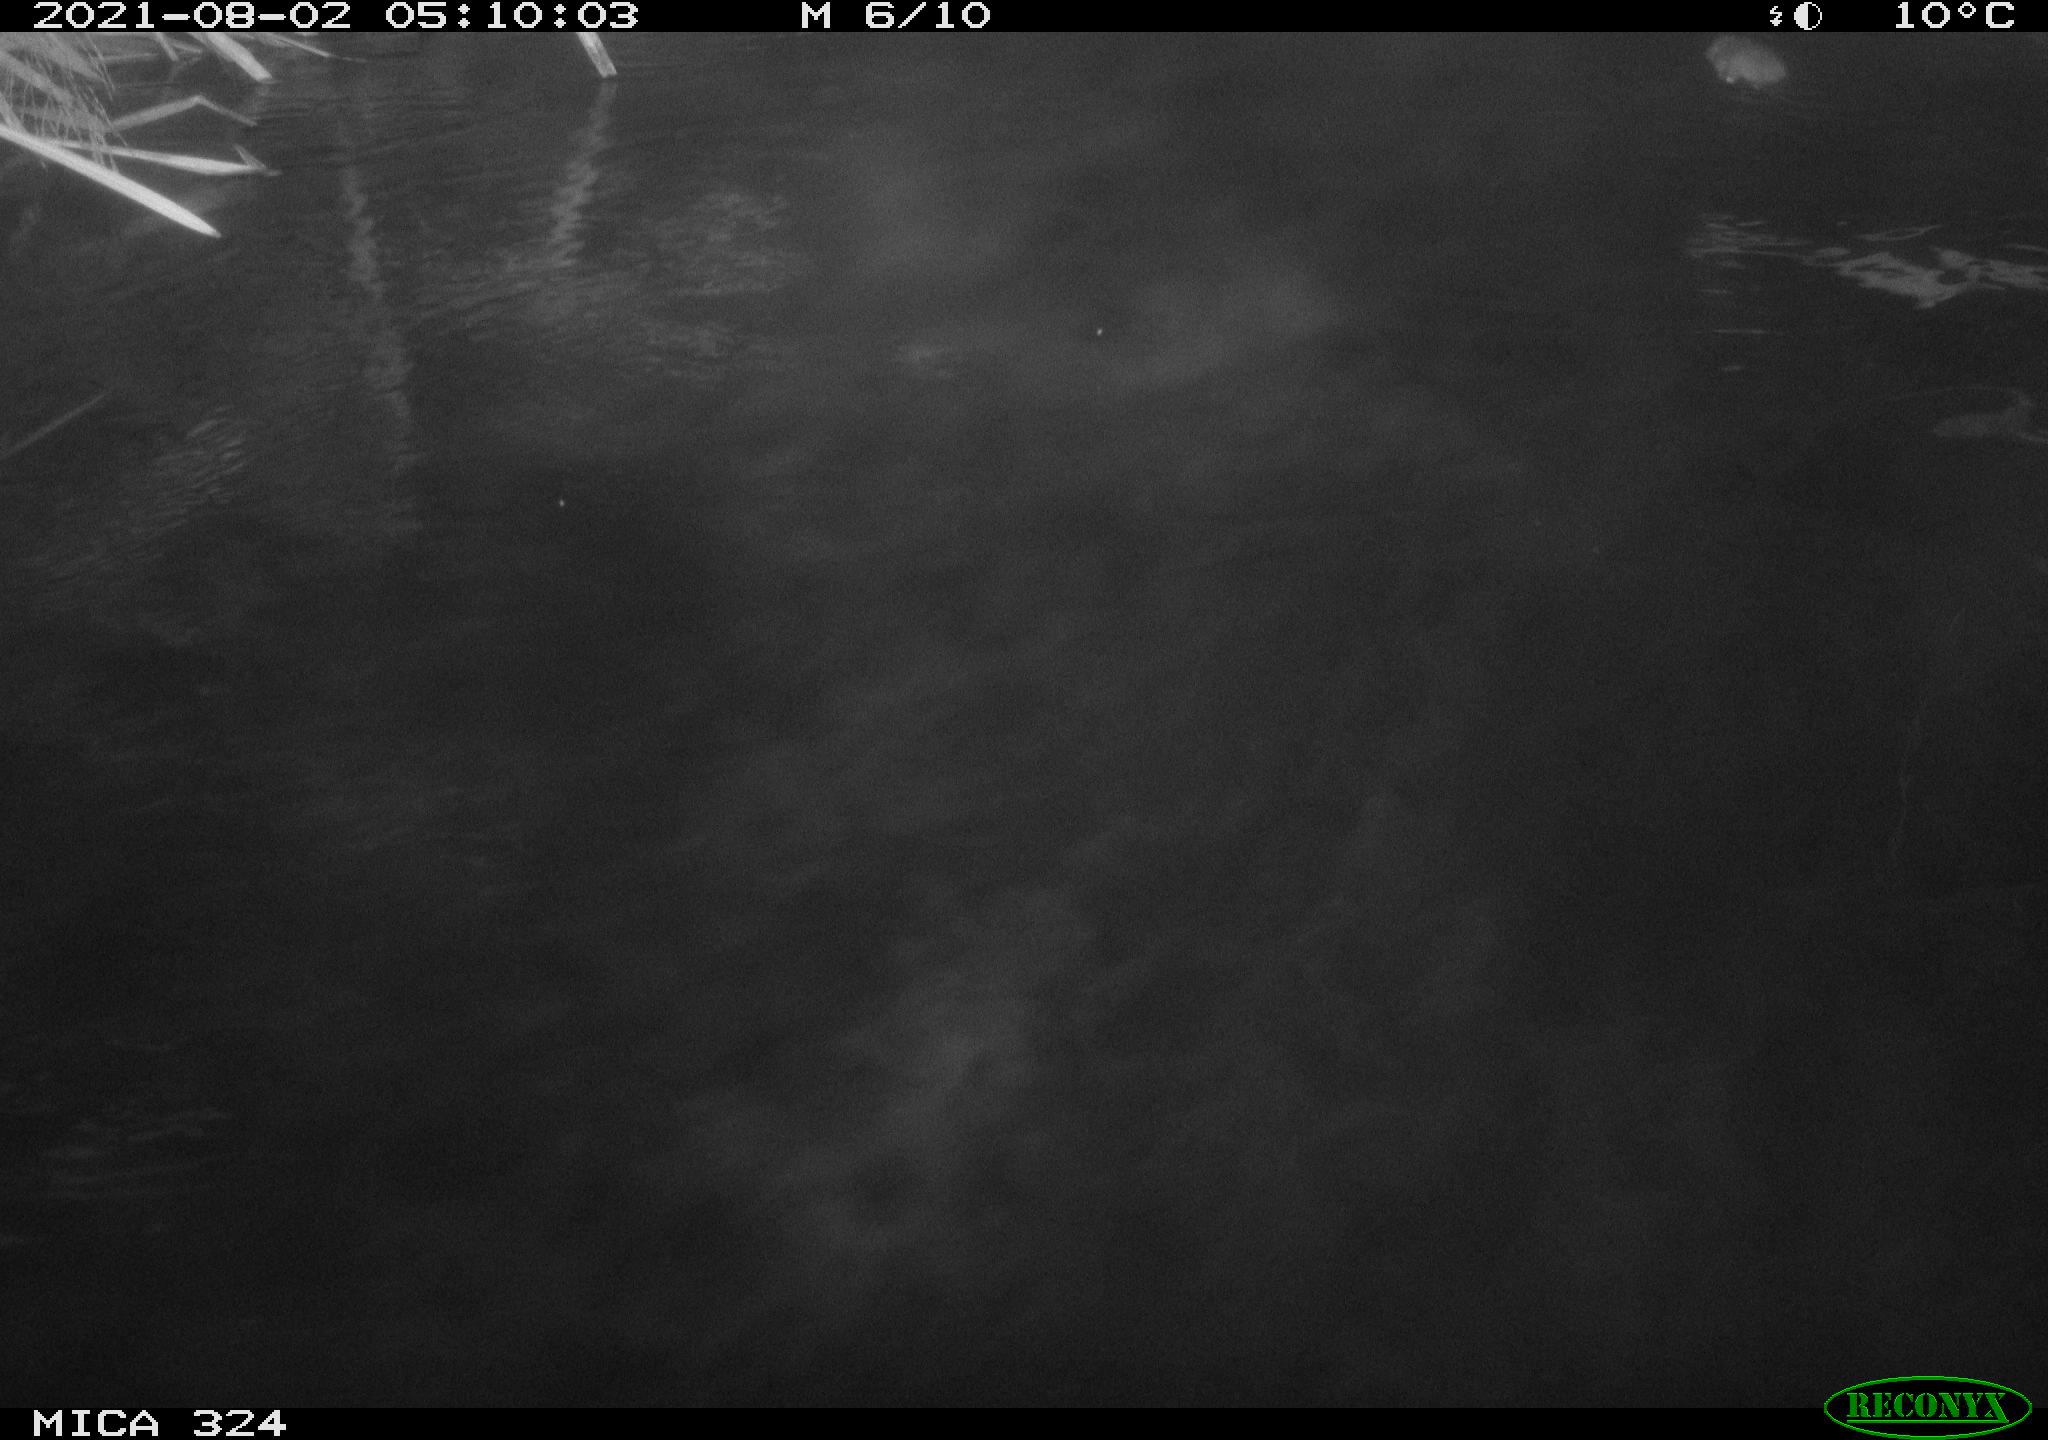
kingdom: Animalia
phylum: Chordata
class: Mammalia
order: Rodentia
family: Cricetidae
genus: Ondatra
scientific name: Ondatra zibethicus
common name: Muskrat
